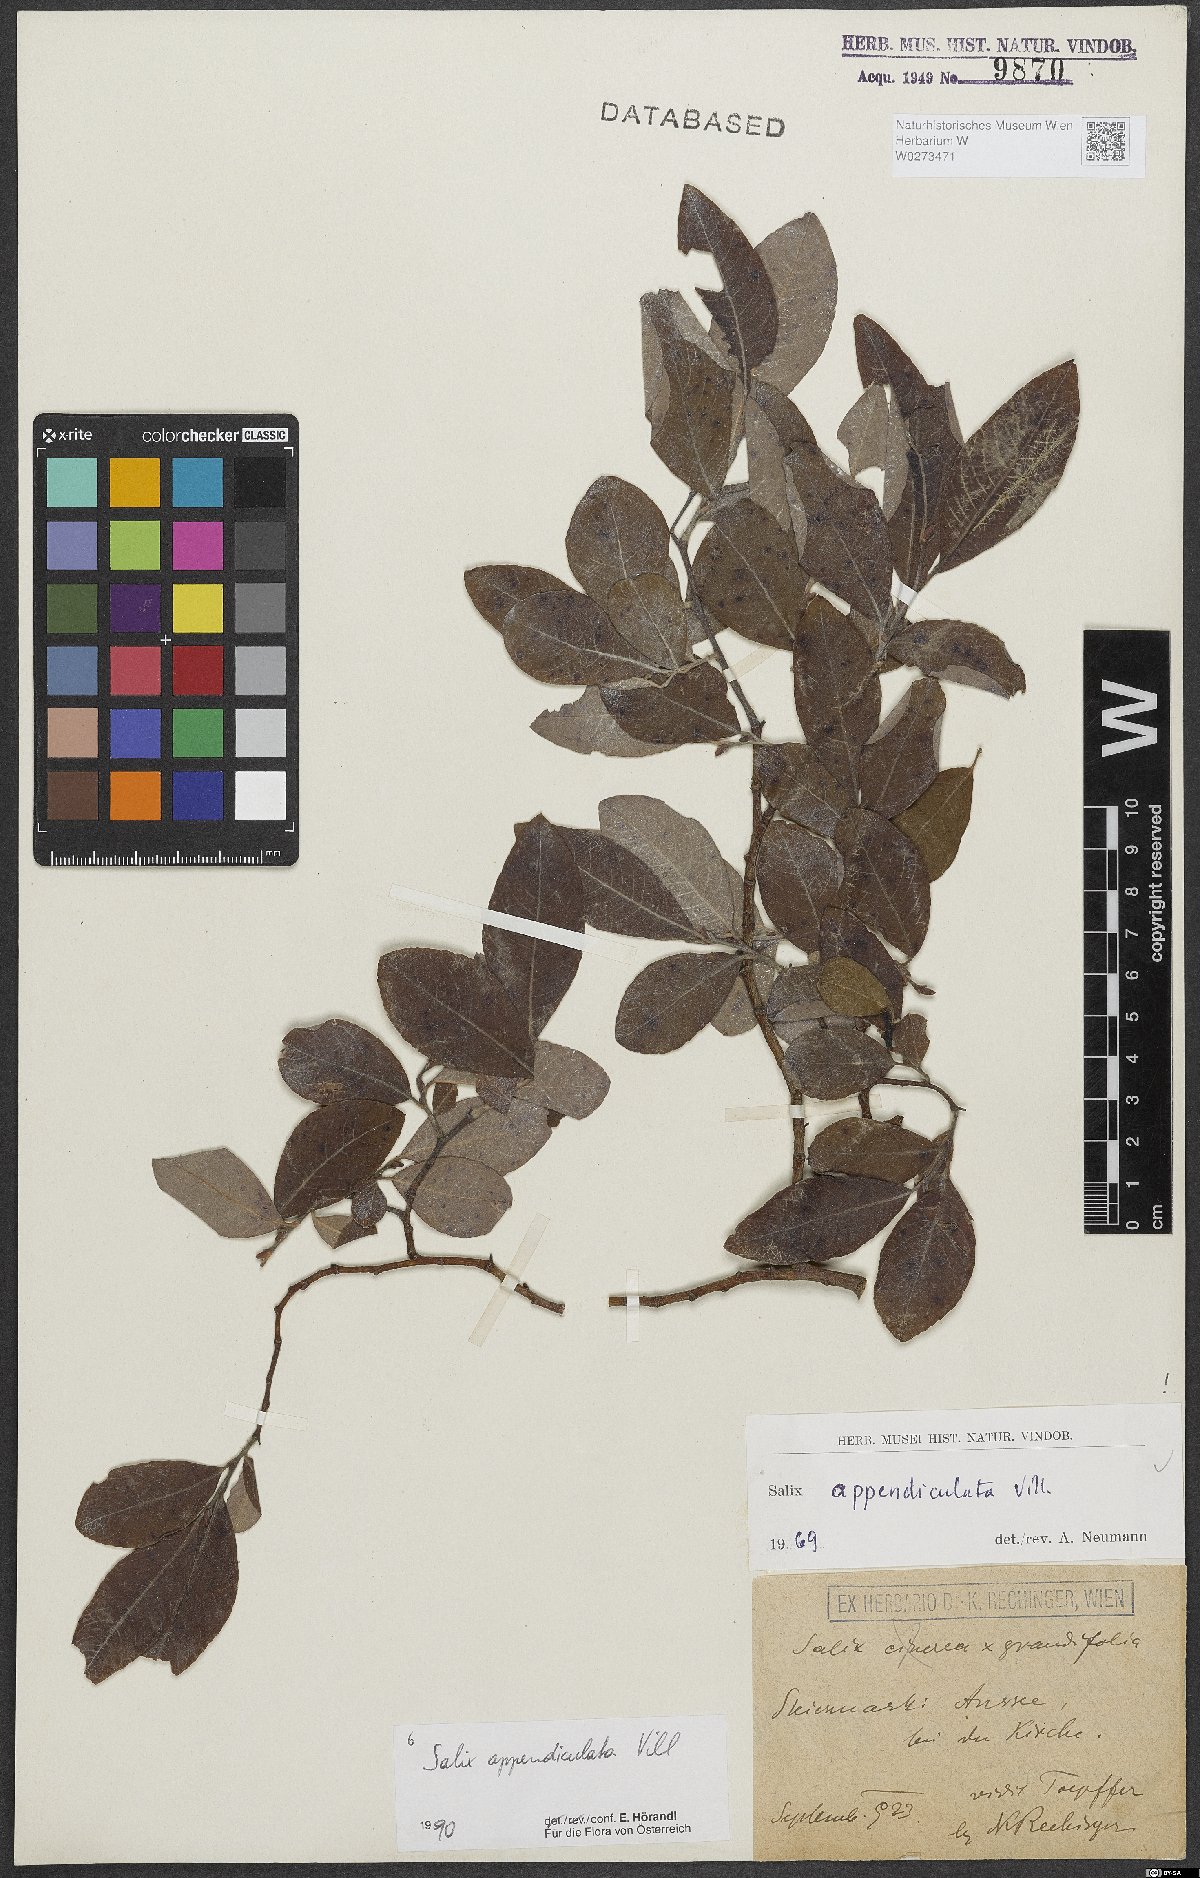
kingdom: Plantae
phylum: Tracheophyta
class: Magnoliopsida
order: Malpighiales
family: Salicaceae
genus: Salix
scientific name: Salix appendiculata
